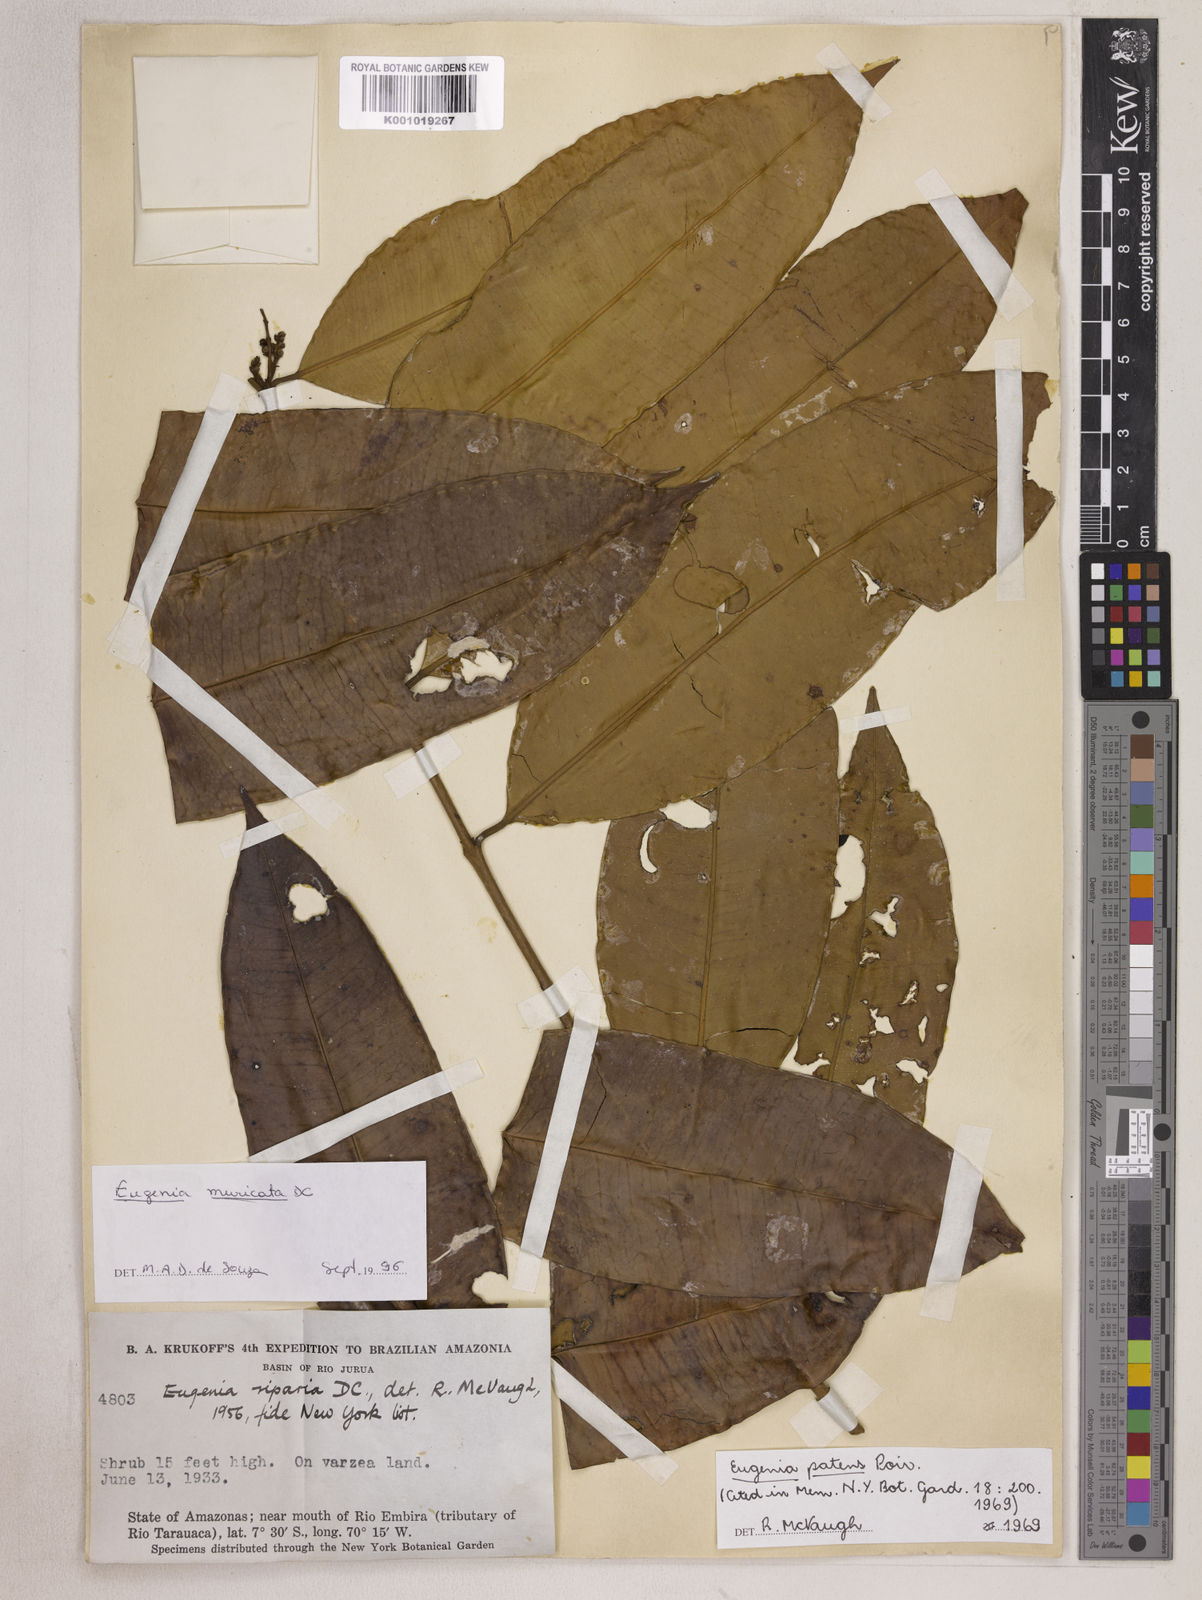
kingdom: Plantae
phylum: Tracheophyta
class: Magnoliopsida
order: Myrtales
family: Myrtaceae
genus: Eugenia
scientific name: Eugenia patens
